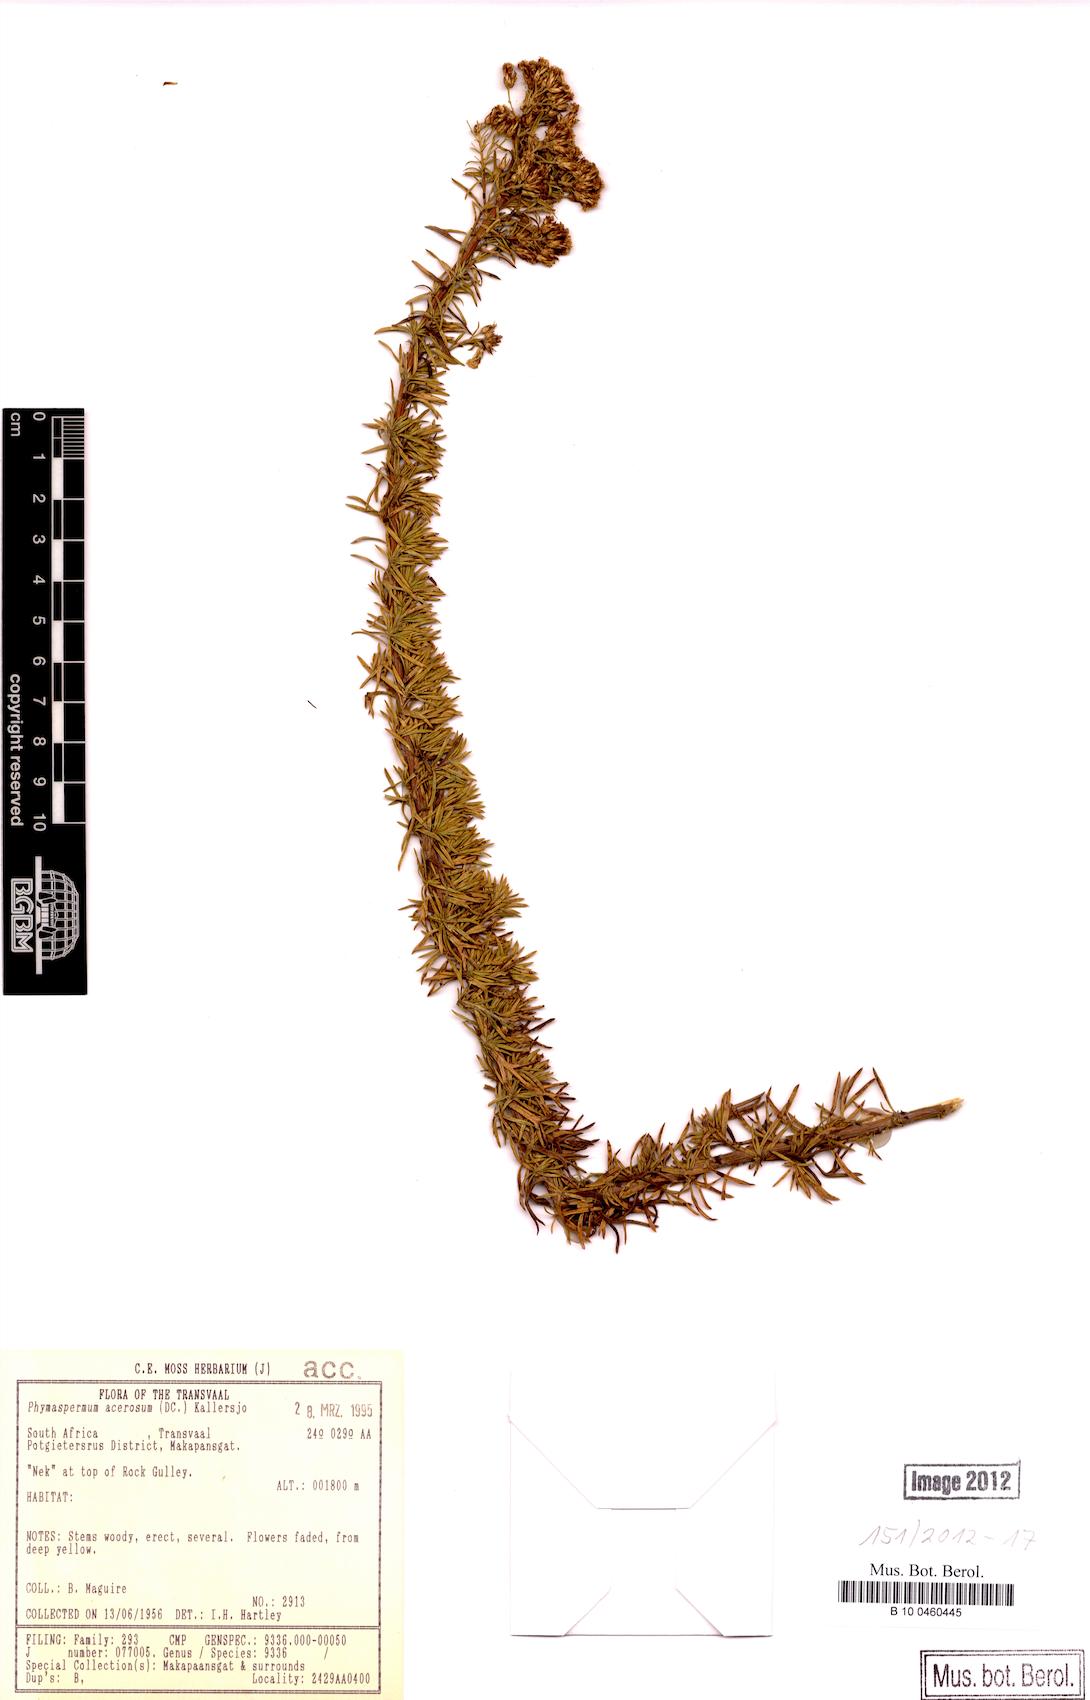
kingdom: Plantae
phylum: Tracheophyta
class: Magnoliopsida
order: Asterales
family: Asteraceae
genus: Phymaspermum
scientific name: Phymaspermum acerosum
